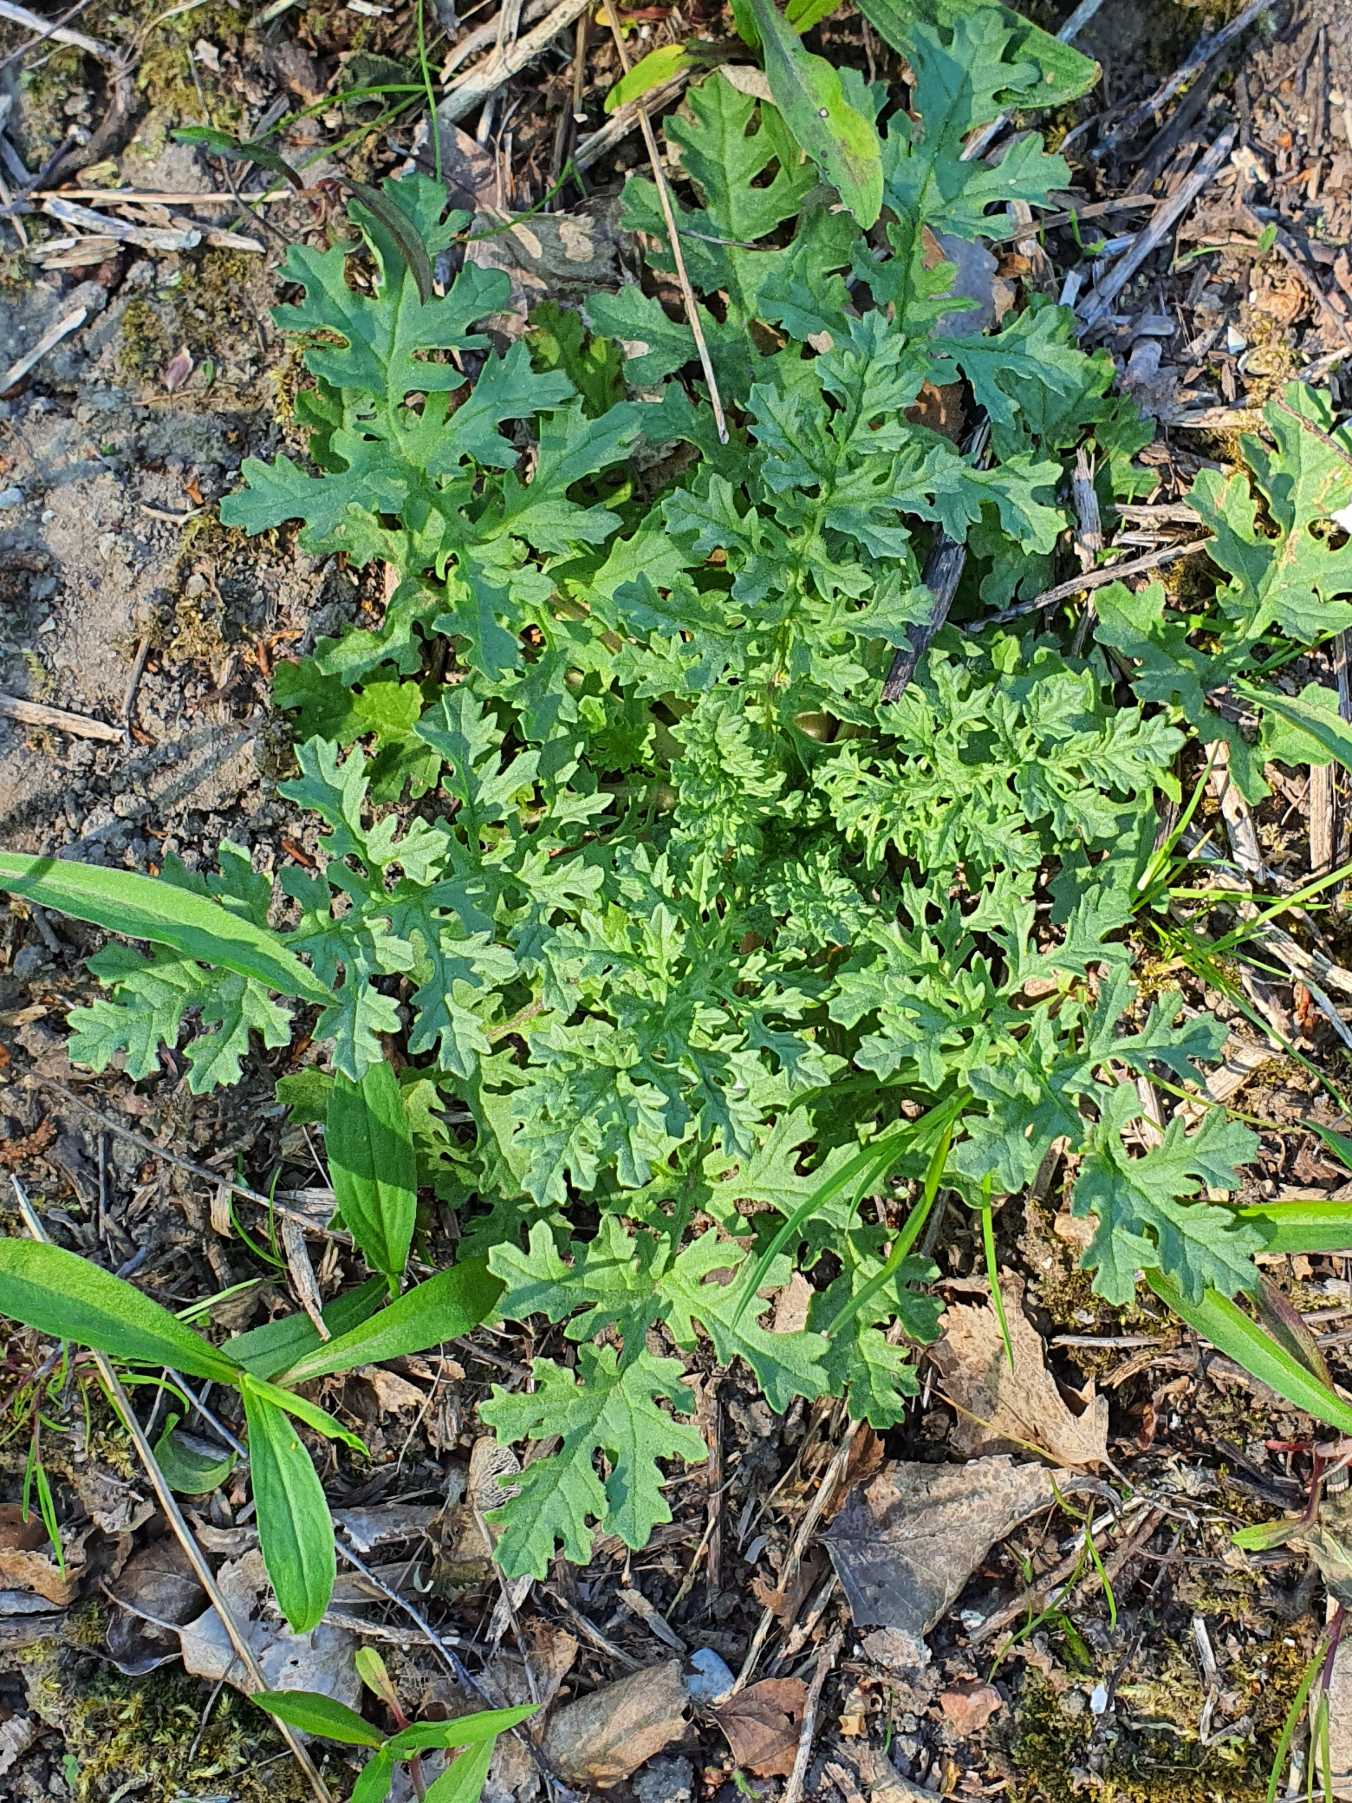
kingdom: Plantae
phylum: Tracheophyta
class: Magnoliopsida
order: Asterales
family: Asteraceae
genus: Jacobaea
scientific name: Jacobaea vulgaris
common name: Eng-brandbæger
